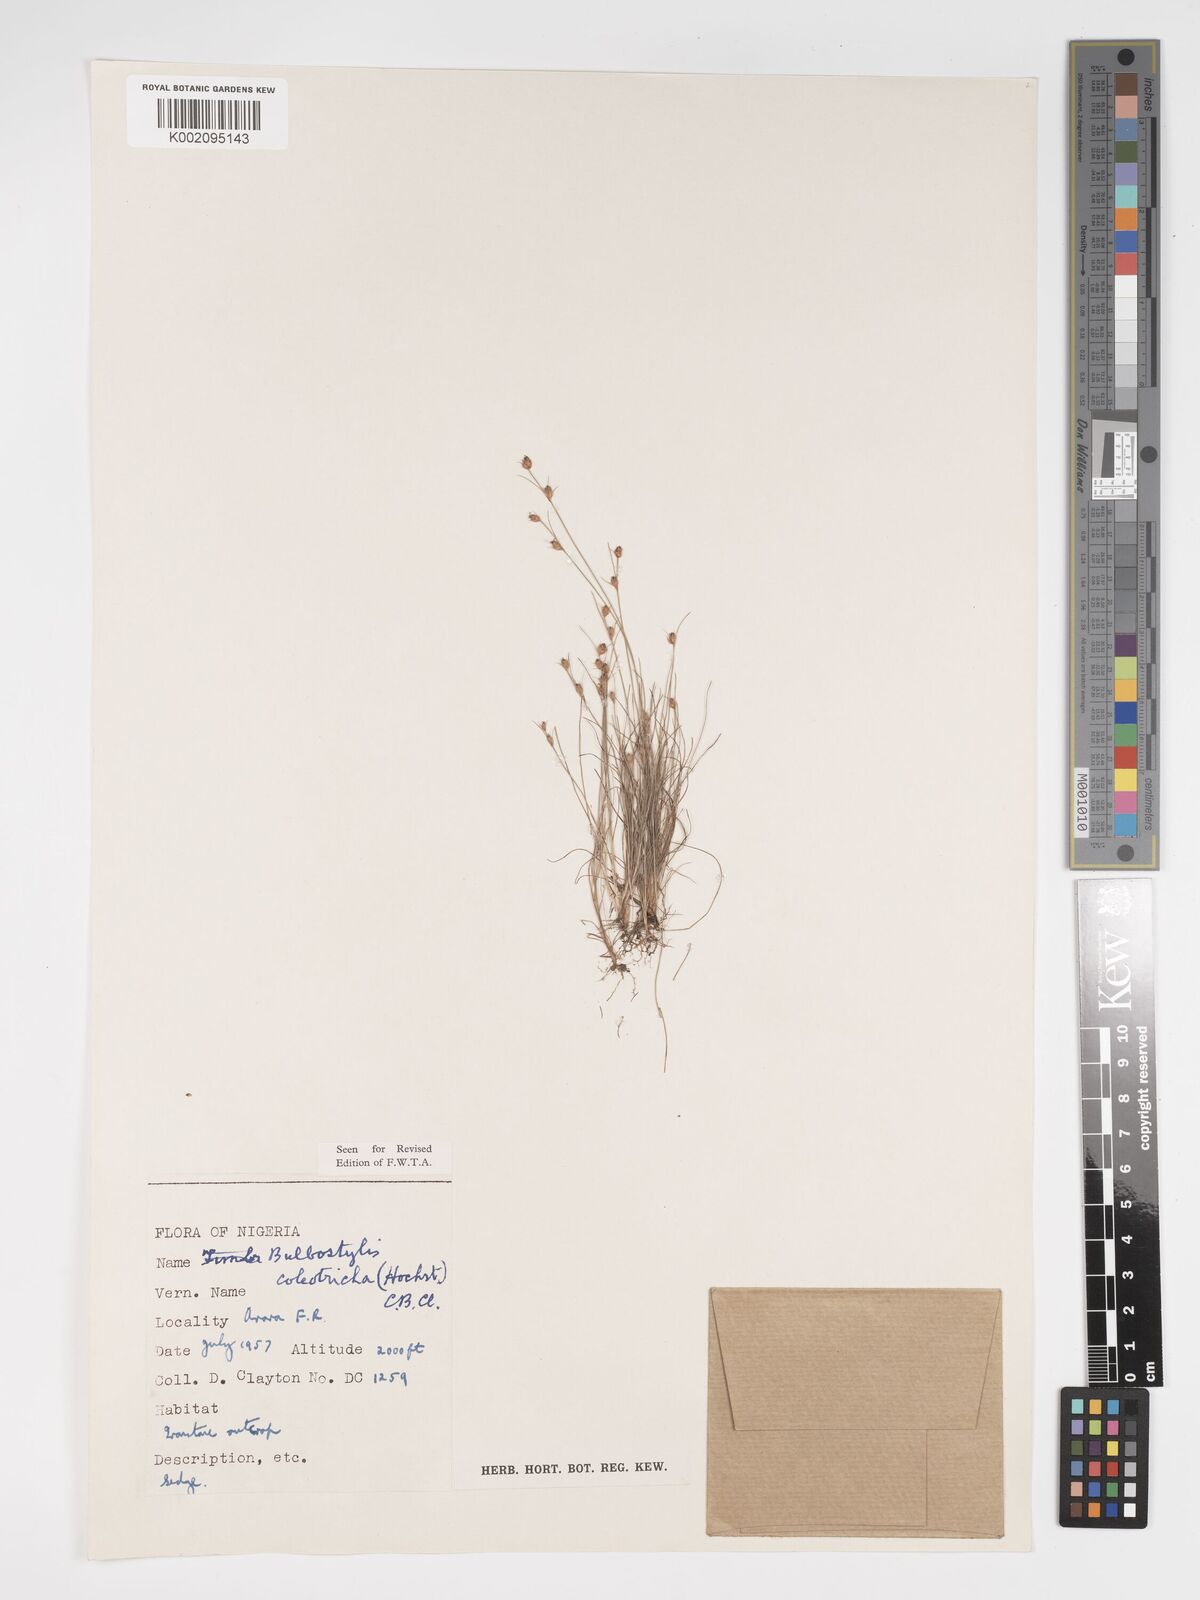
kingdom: Plantae
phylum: Tracheophyta
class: Liliopsida
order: Poales
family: Cyperaceae
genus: Bulbostylis
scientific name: Bulbostylis coleotricha
